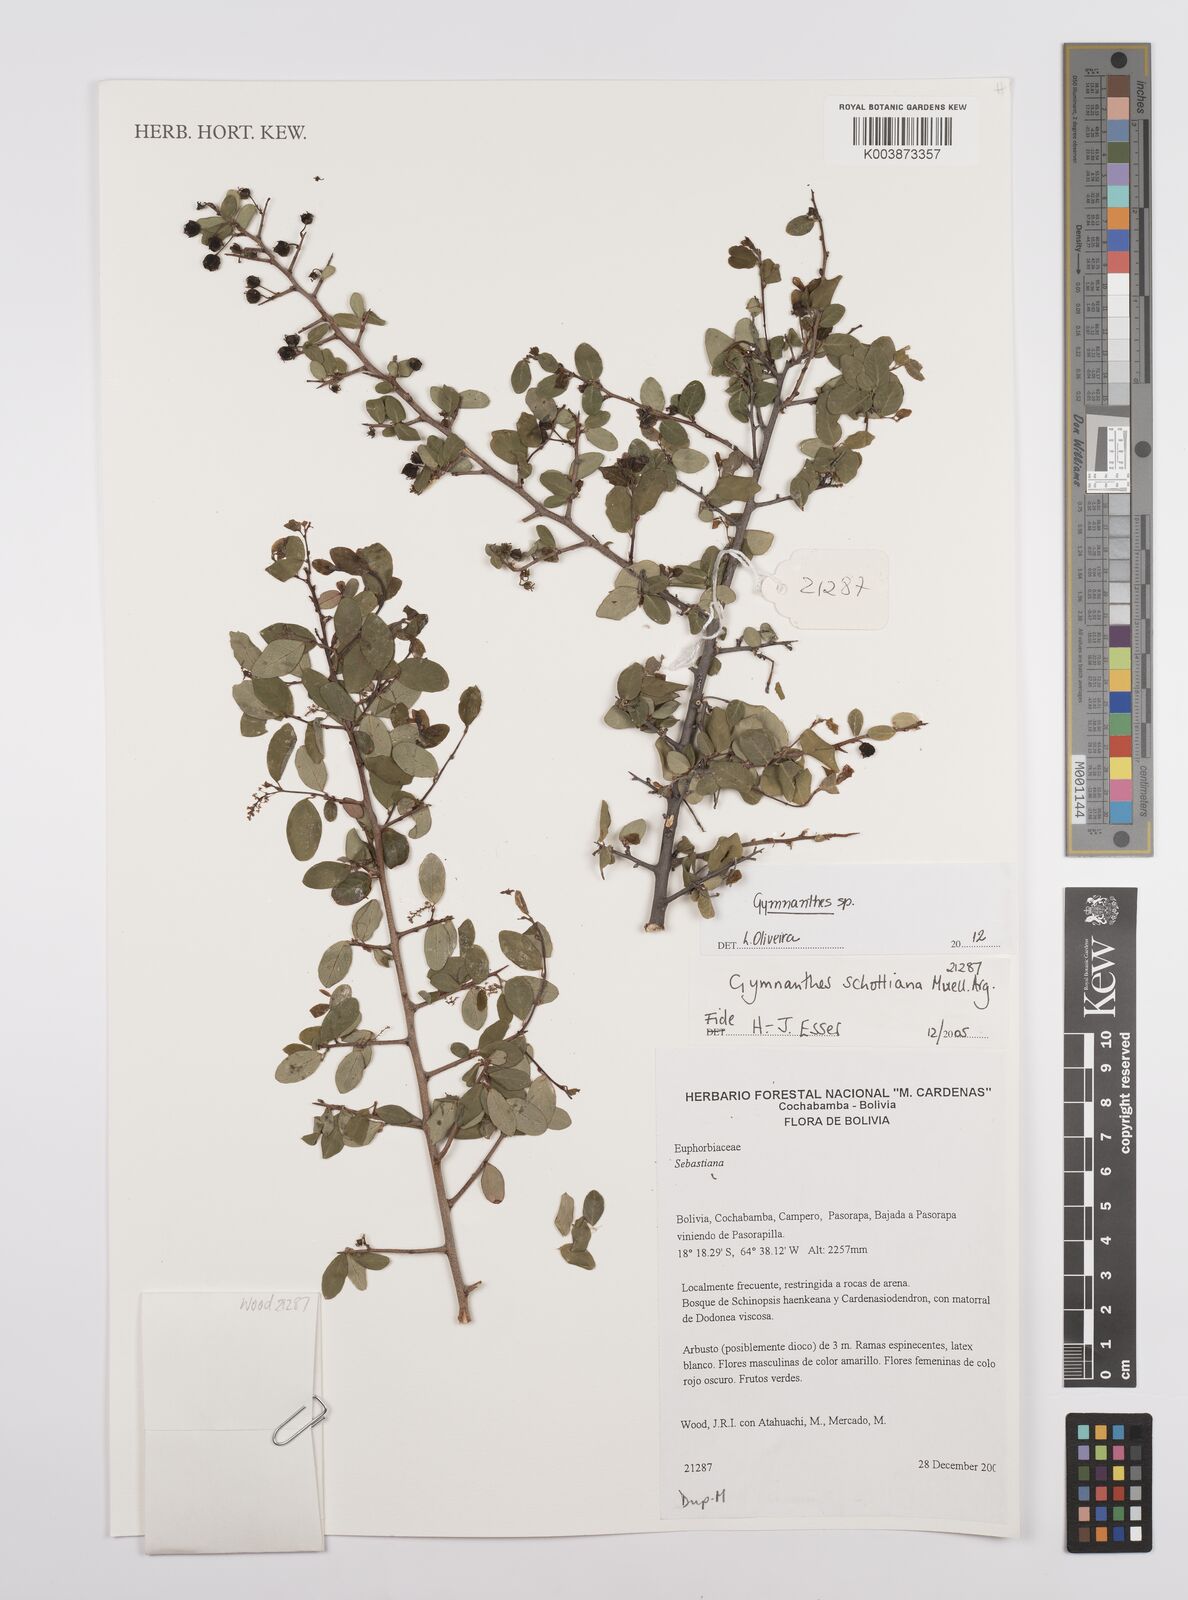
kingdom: Plantae
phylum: Tracheophyta
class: Magnoliopsida
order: Malpighiales
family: Euphorbiaceae
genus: Gymnanthes
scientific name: Gymnanthes
